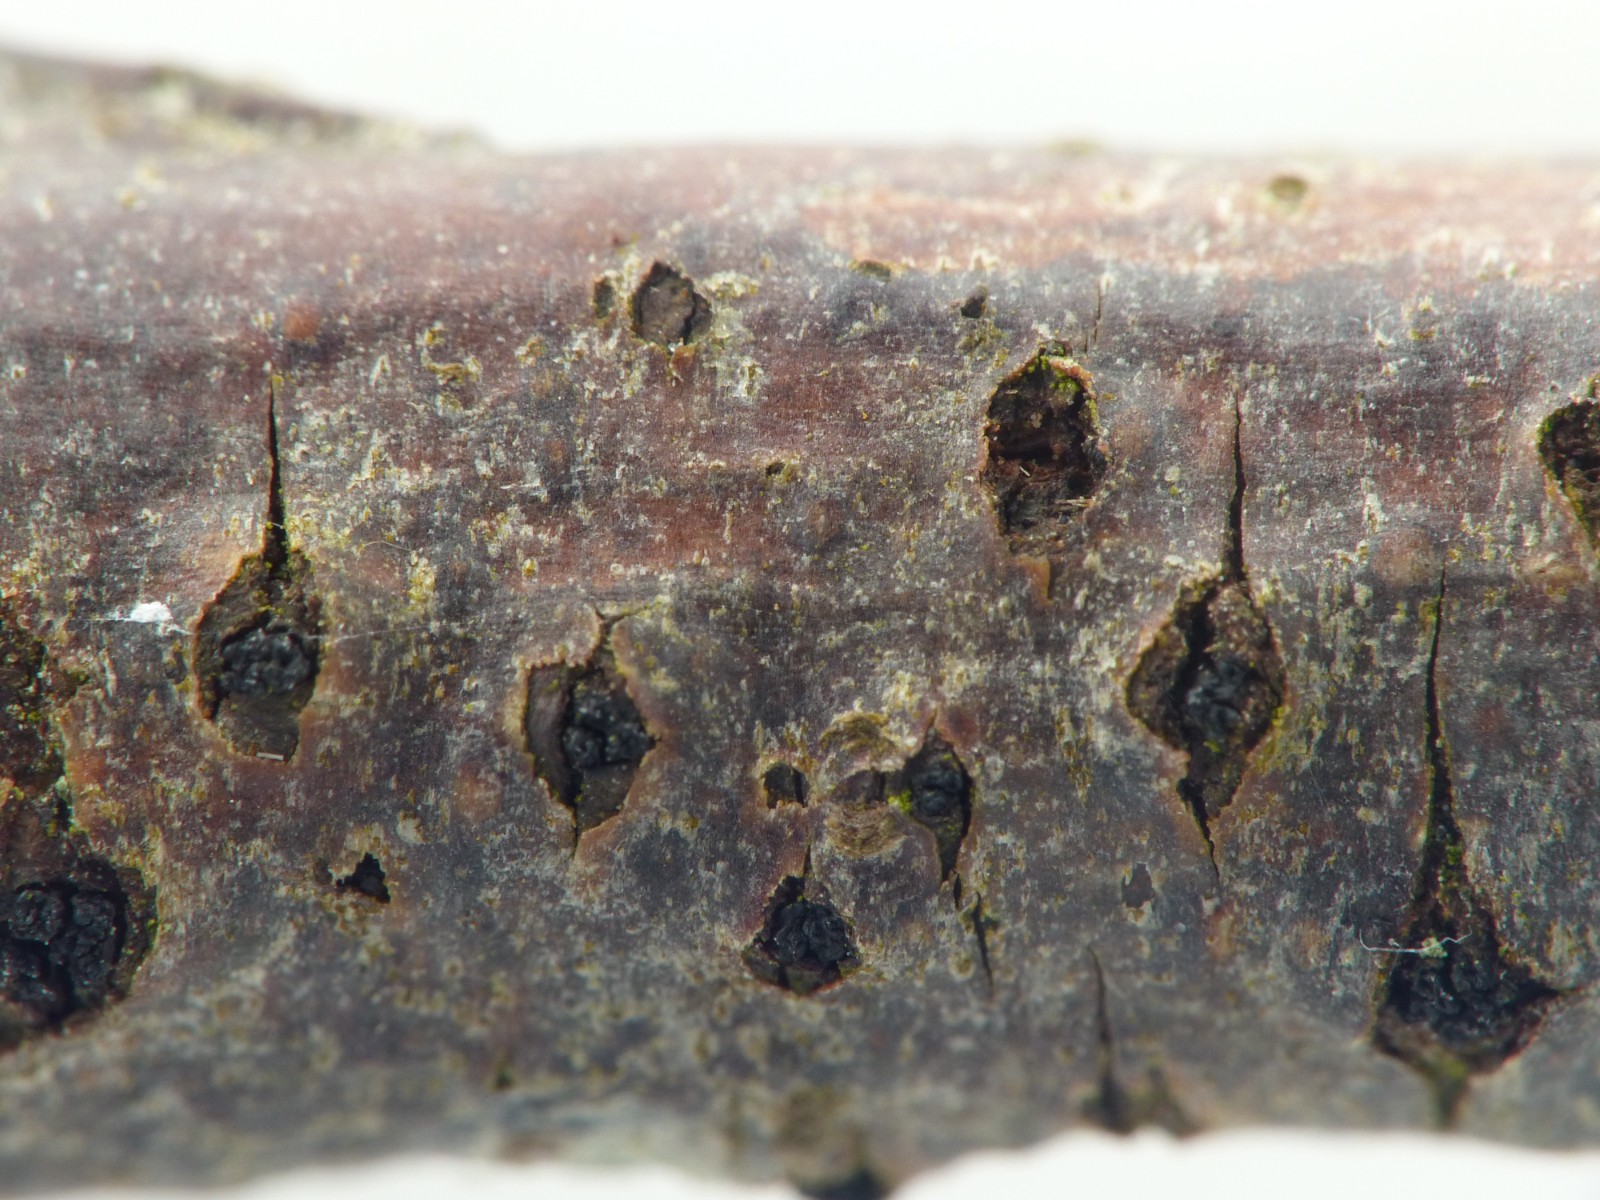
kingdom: Fungi
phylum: Ascomycota
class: Sordariomycetes
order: Xylariales
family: Diatrypaceae
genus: Eutypella
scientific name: Eutypella prunastri
